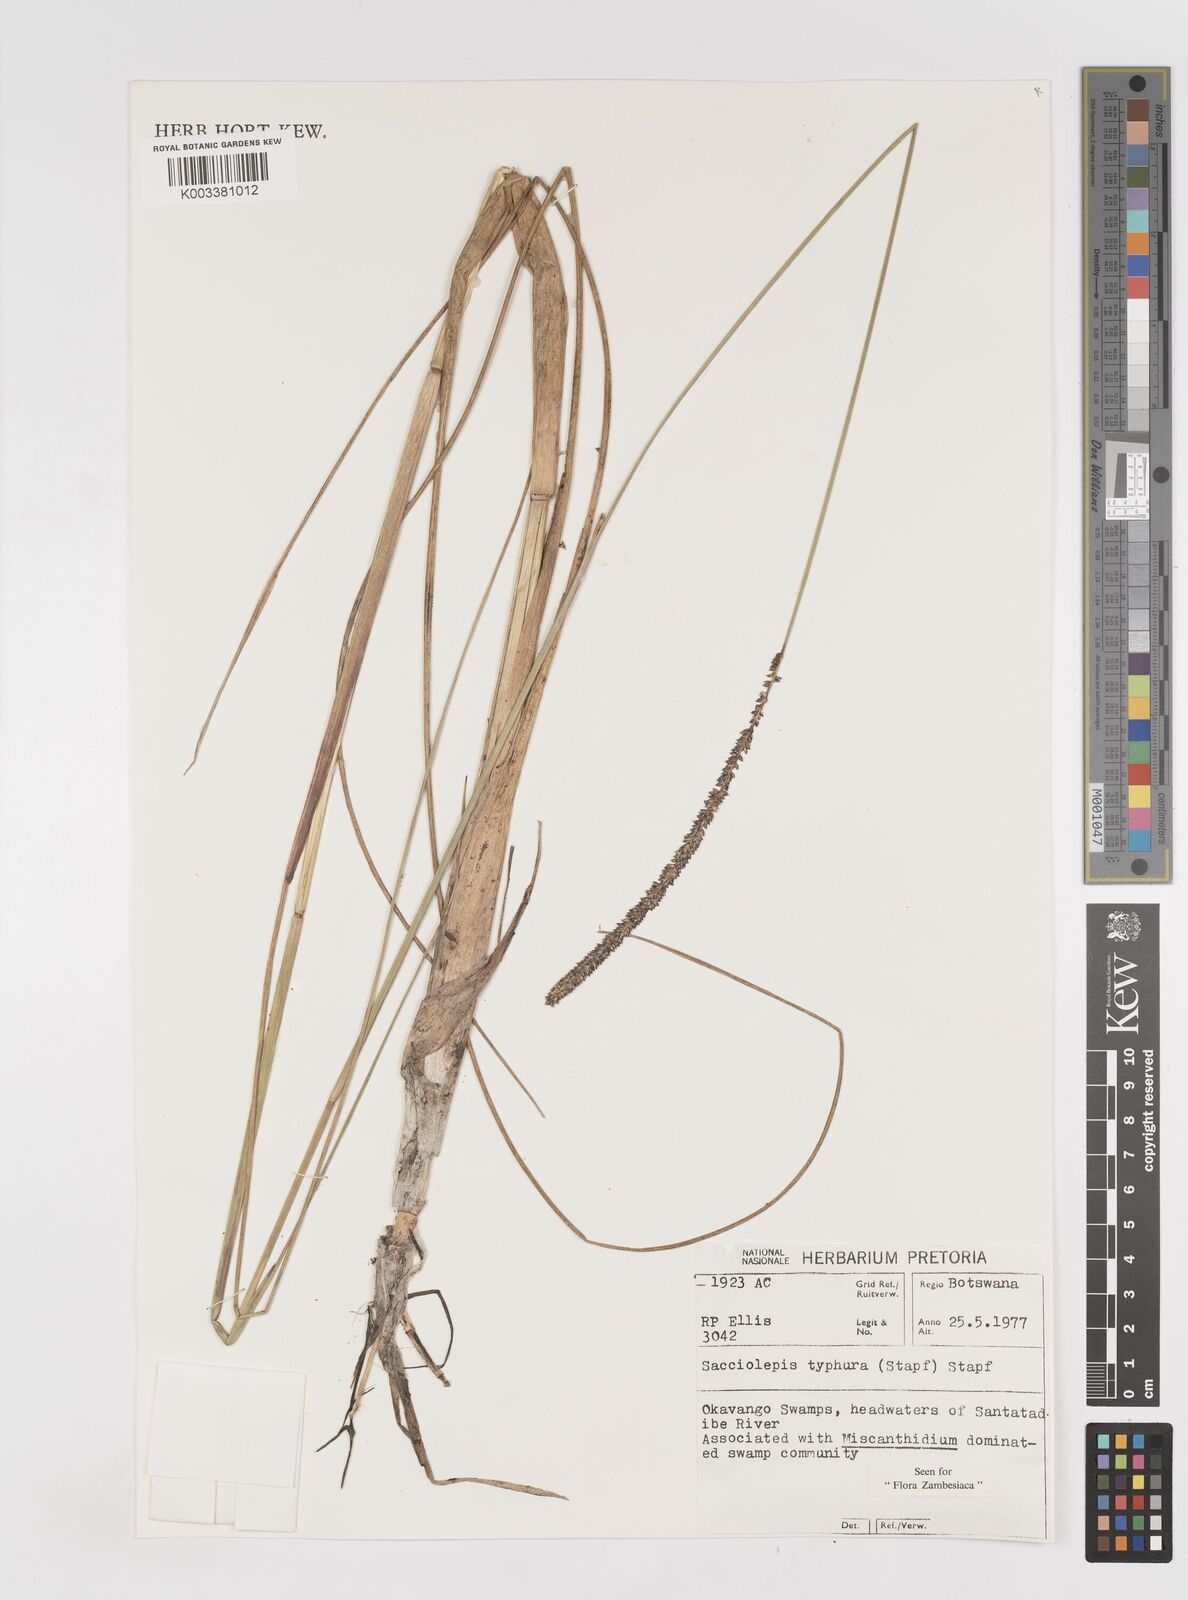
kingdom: Plantae
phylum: Tracheophyta
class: Liliopsida
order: Poales
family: Poaceae
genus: Sacciolepis
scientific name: Sacciolepis typhura
